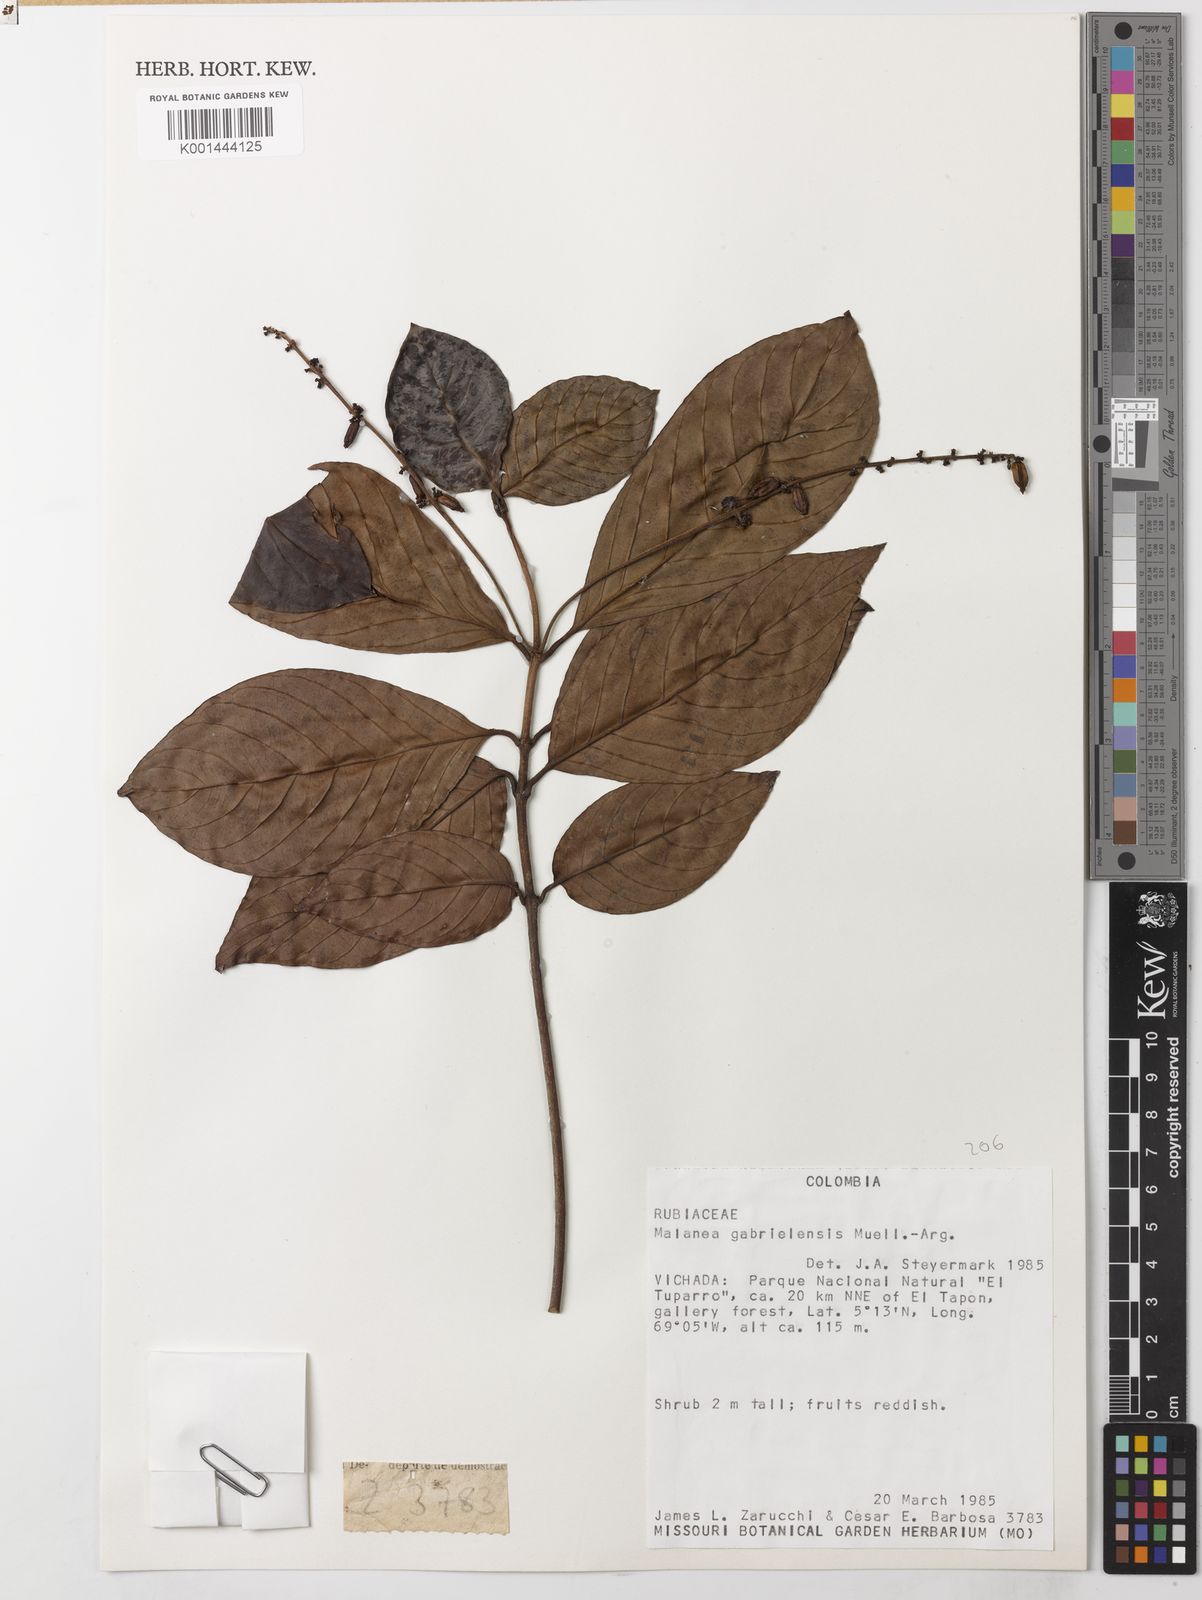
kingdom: Plantae
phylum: Tracheophyta
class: Magnoliopsida
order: Gentianales
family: Rubiaceae
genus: Malanea
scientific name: Malanea
